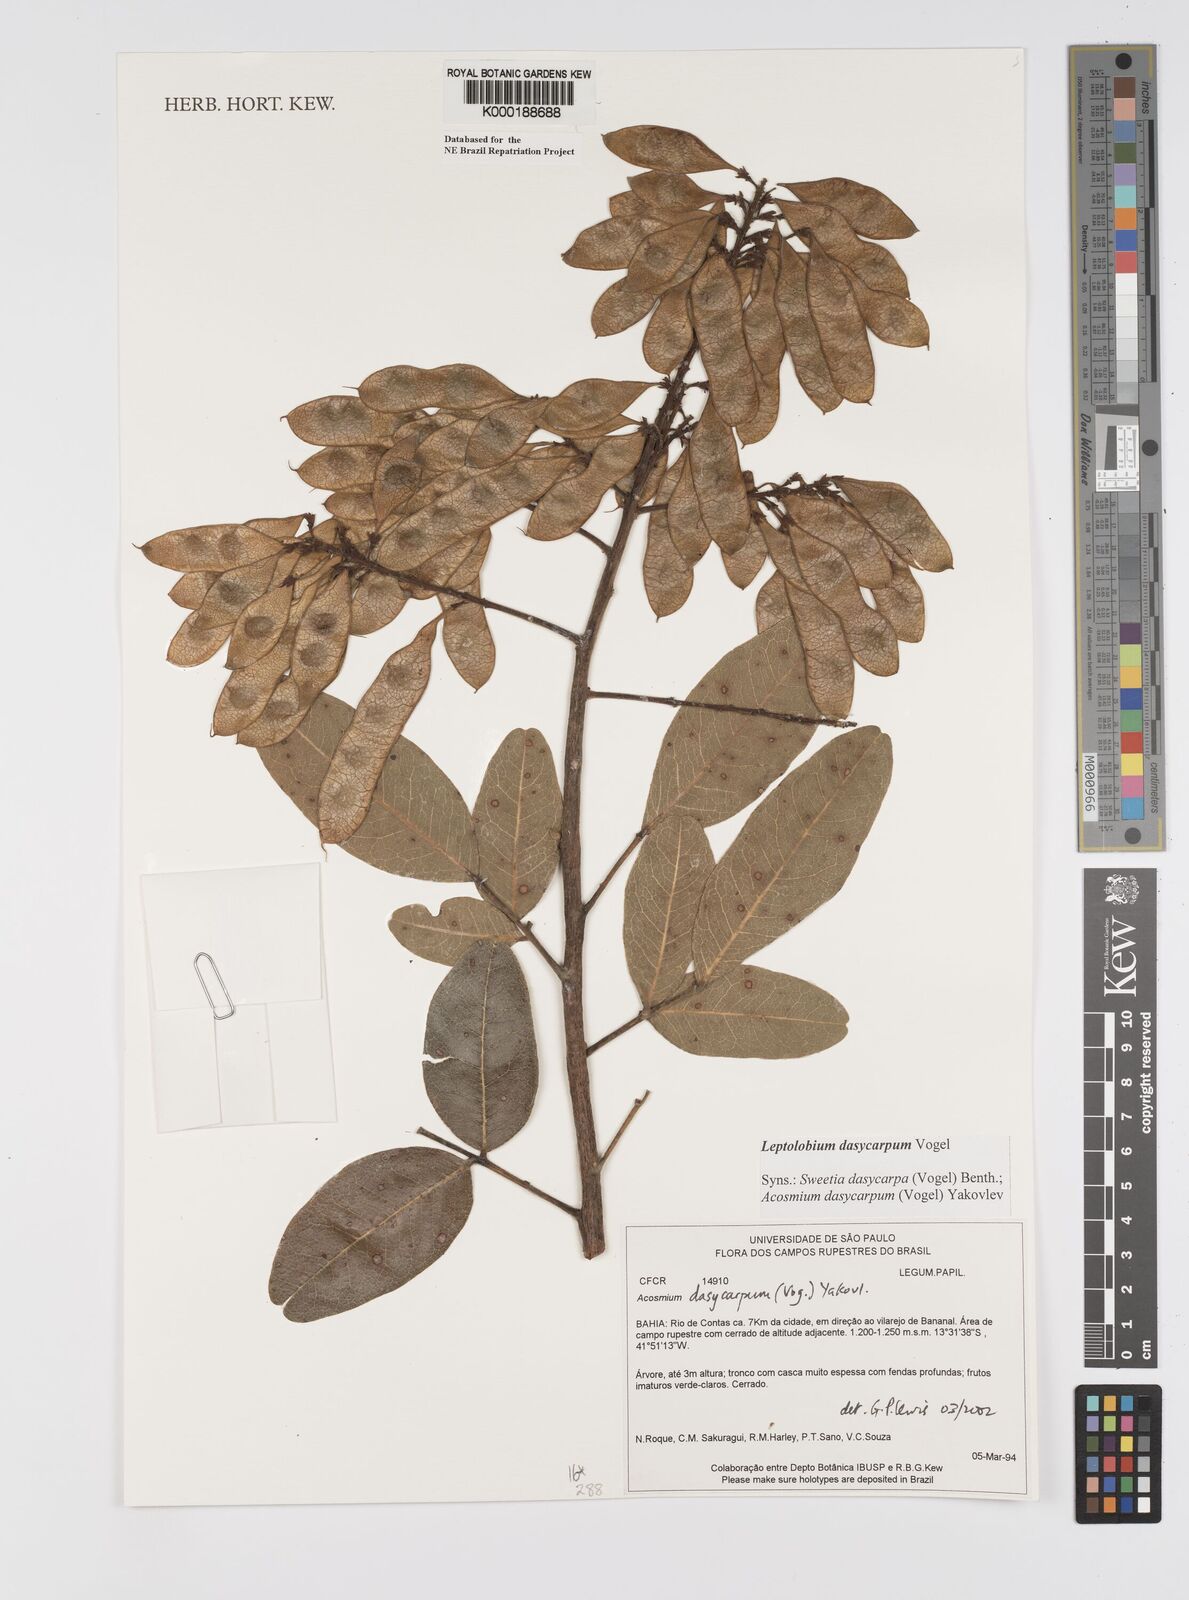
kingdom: Plantae
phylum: Tracheophyta
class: Magnoliopsida
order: Fabales
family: Fabaceae
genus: Leptolobium
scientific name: Leptolobium dasycarpum
